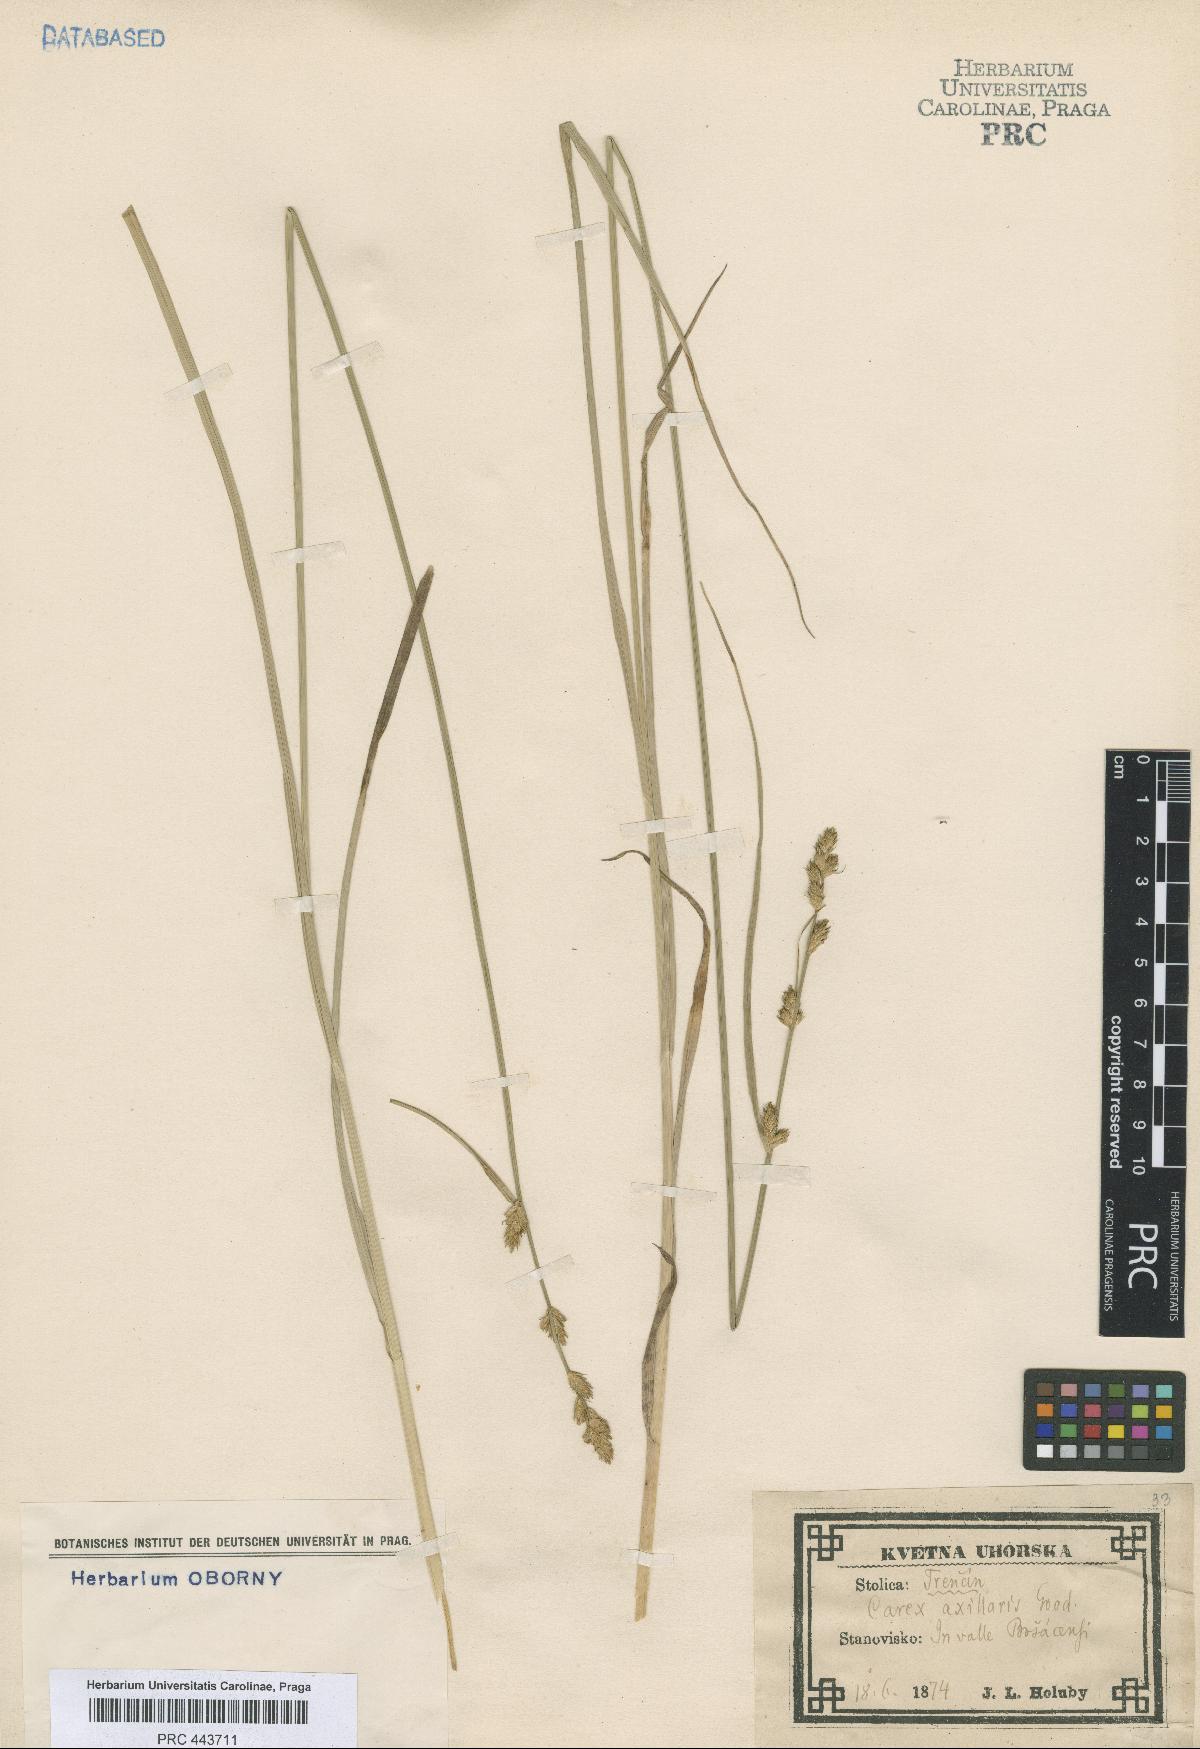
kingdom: Plantae
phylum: Tracheophyta
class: Liliopsida
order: Poales
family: Cyperaceae
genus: Carex
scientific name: Carex pseudoaxillaris
